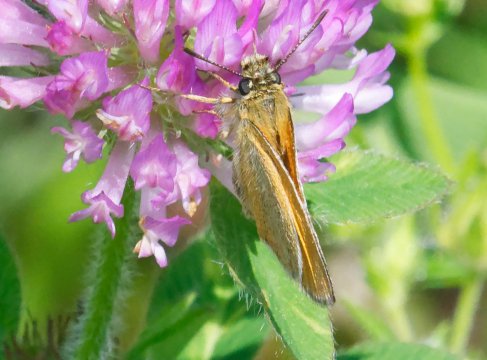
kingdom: Animalia
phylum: Arthropoda
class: Insecta
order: Lepidoptera
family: Hesperiidae
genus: Thymelicus
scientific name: Thymelicus lineola
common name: European Skipper
